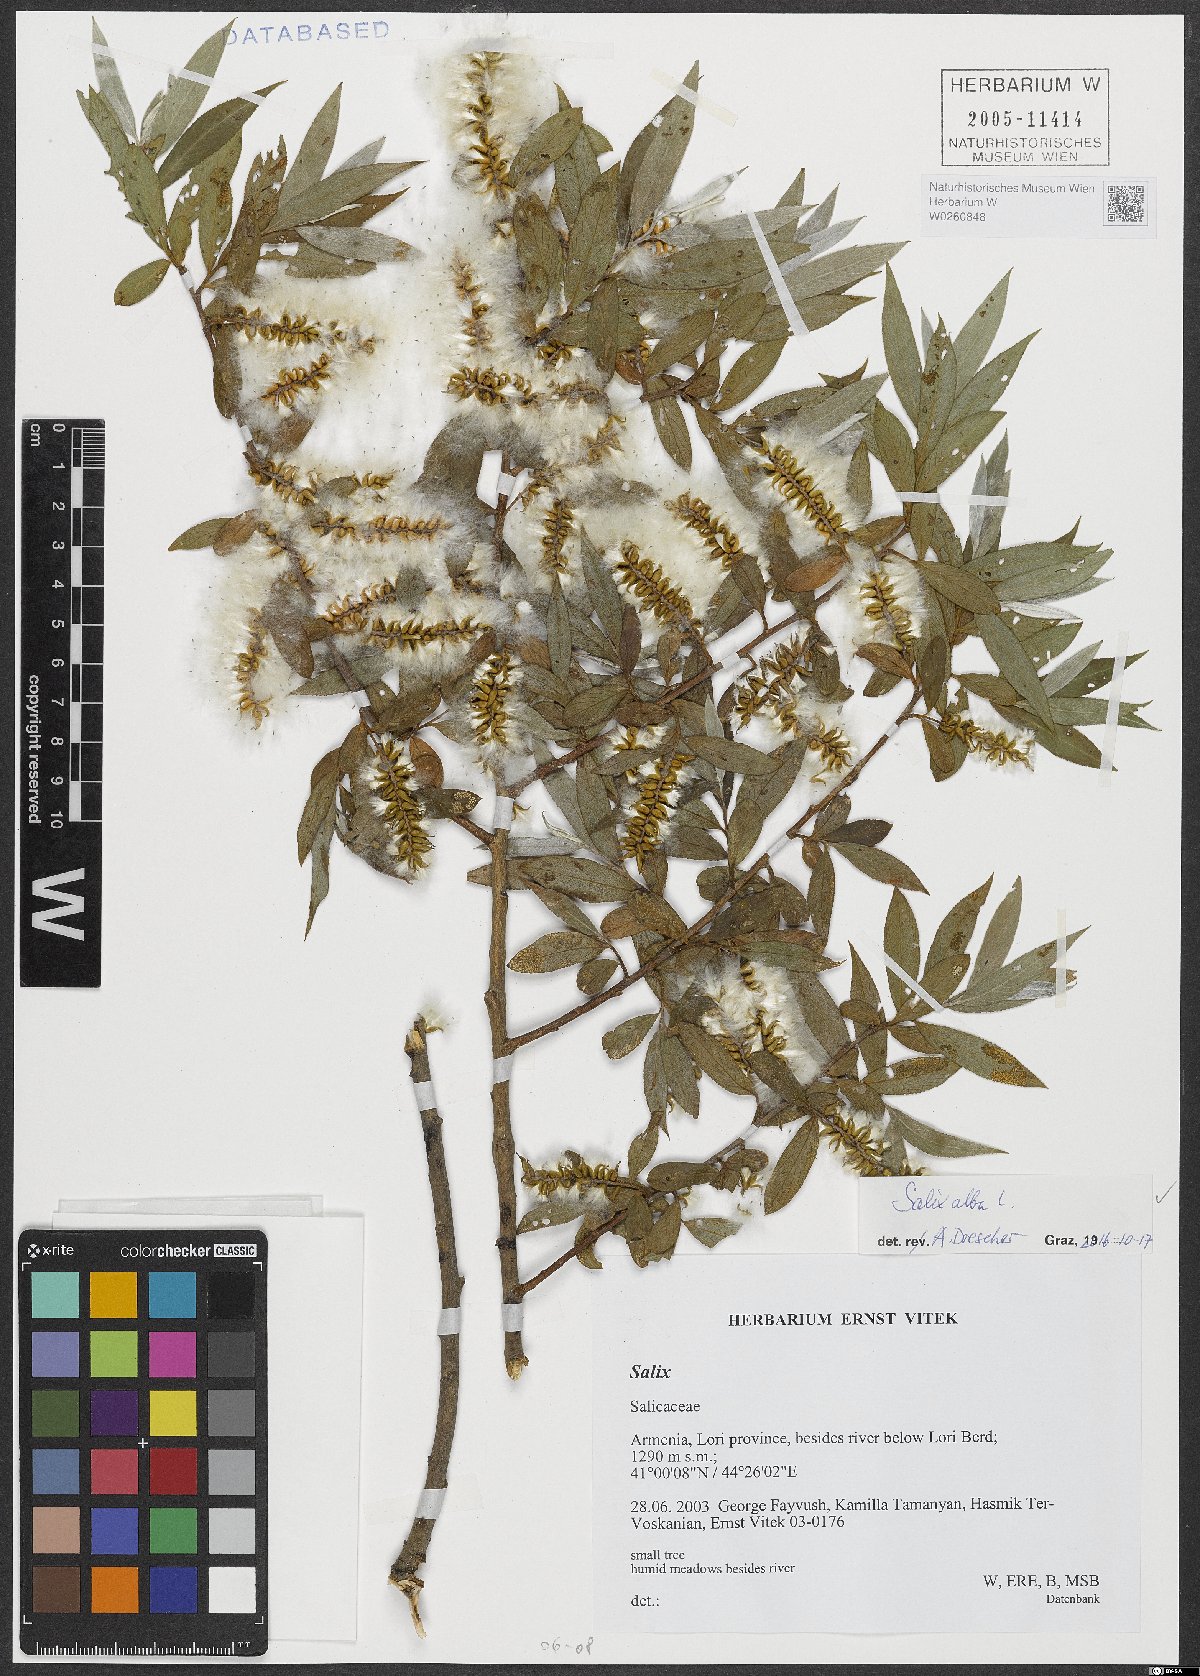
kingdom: Plantae
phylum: Tracheophyta
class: Magnoliopsida
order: Malpighiales
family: Salicaceae
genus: Salix
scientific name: Salix alba
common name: White willow
